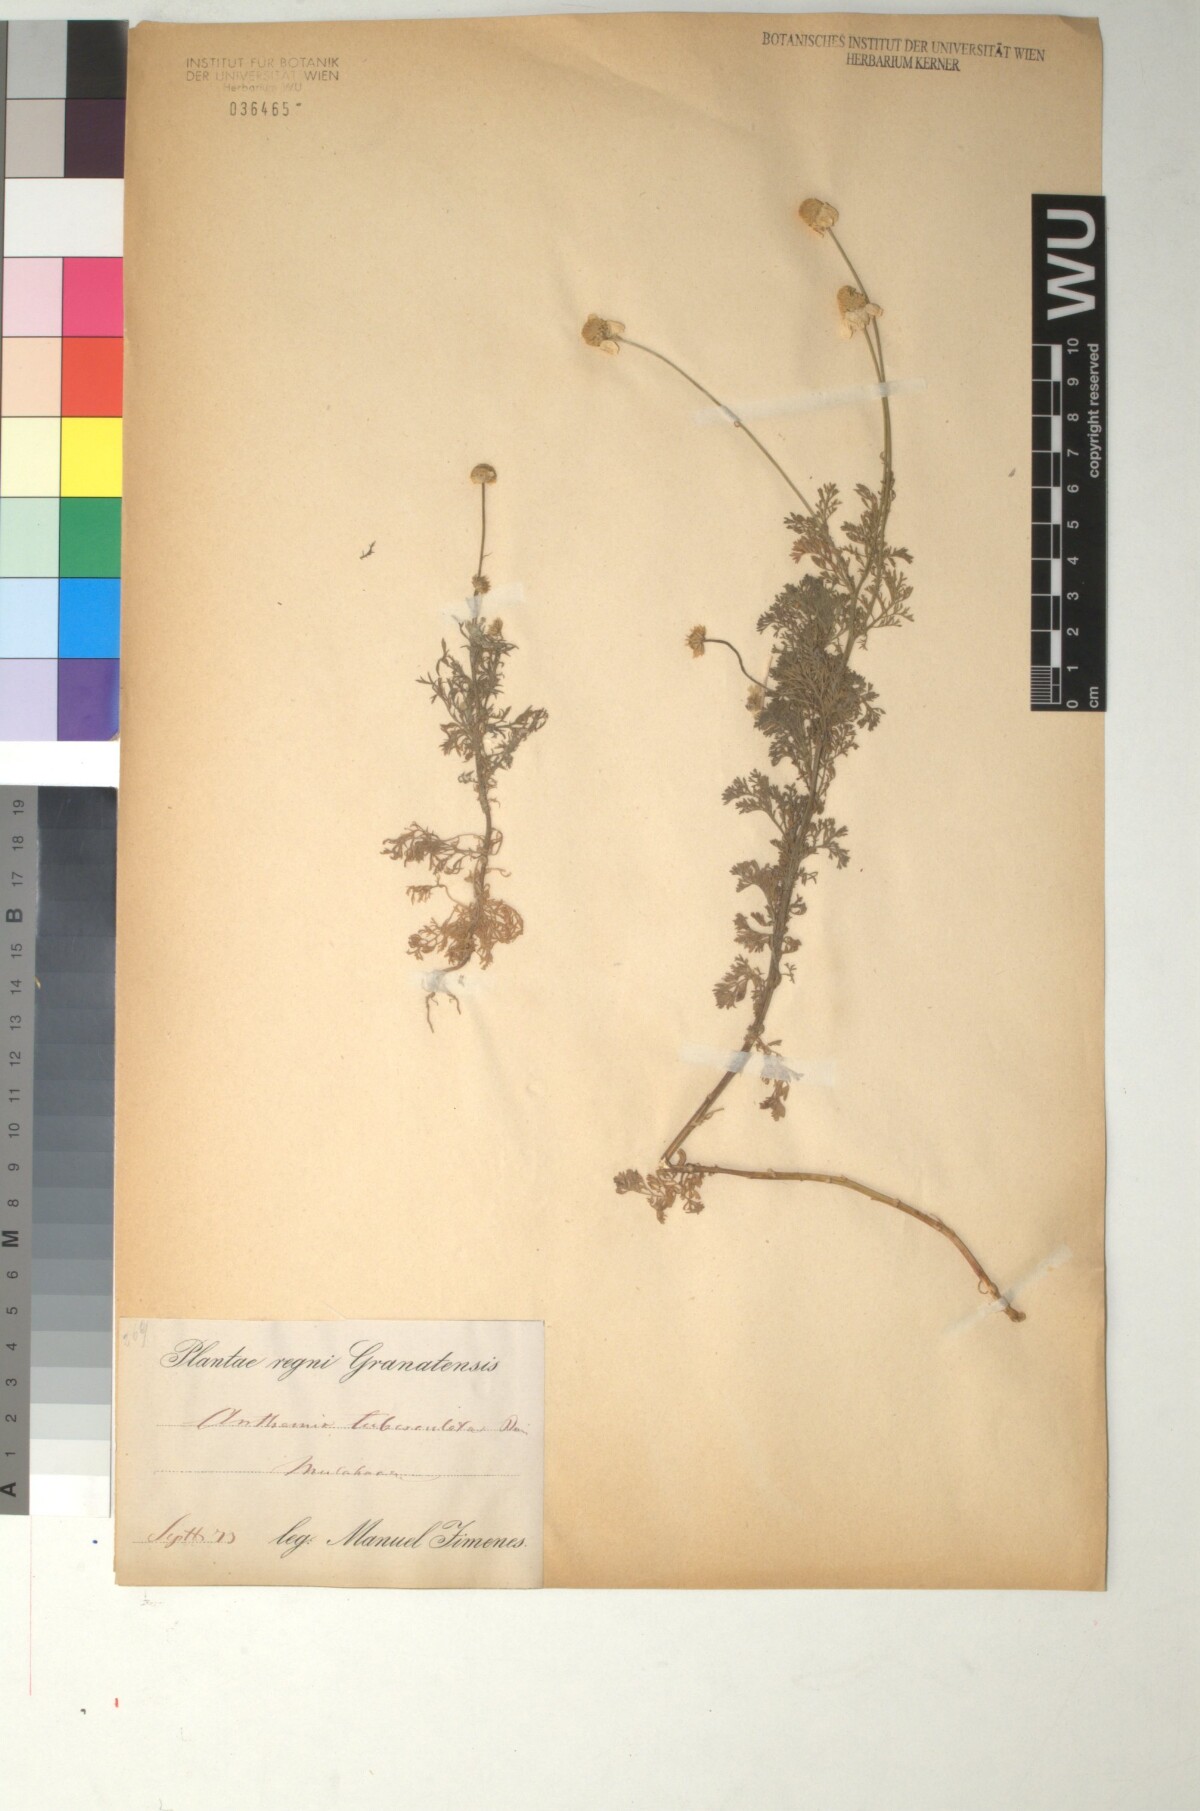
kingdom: Plantae
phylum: Tracheophyta
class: Magnoliopsida
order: Asterales
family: Asteraceae
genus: Anthemis
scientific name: Anthemis pedunculata
